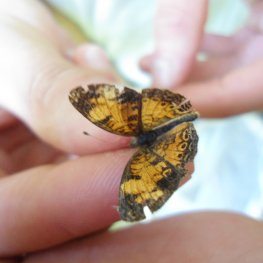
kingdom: Animalia
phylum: Arthropoda
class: Insecta
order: Lepidoptera
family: Nymphalidae
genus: Phyciodes
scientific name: Phyciodes tharos
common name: Pearl Crescent
